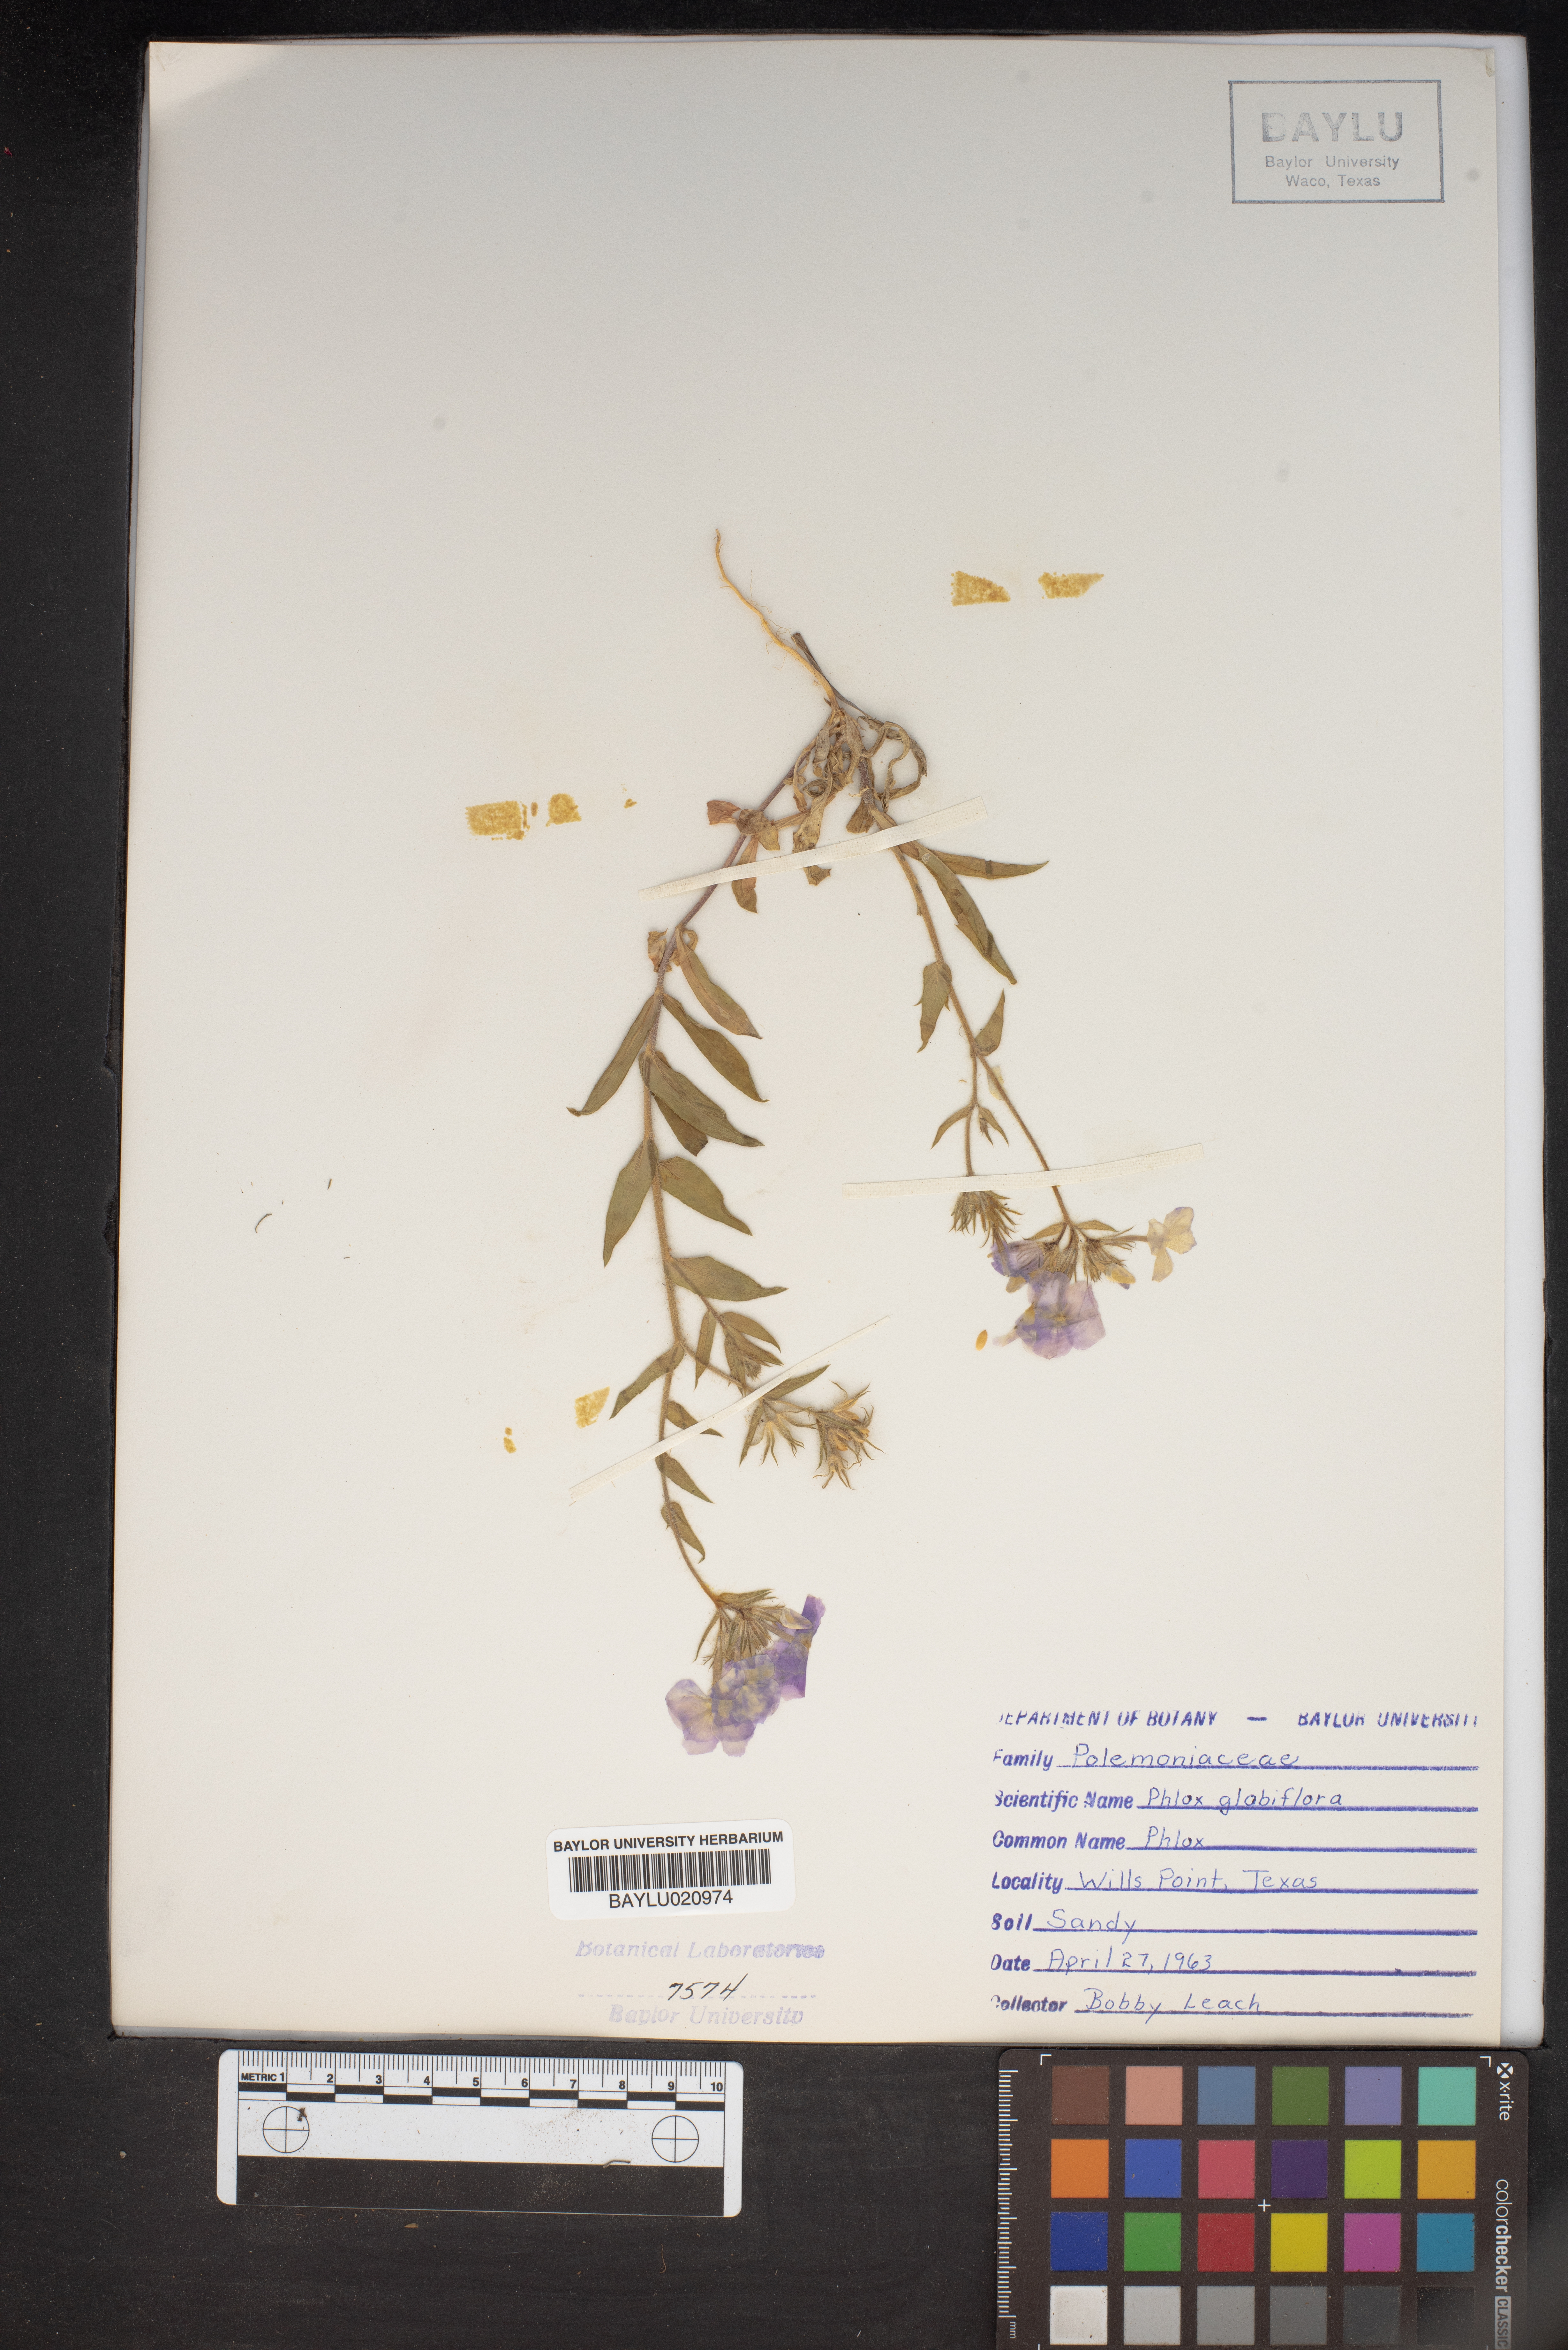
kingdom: Plantae
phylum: Tracheophyta
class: Magnoliopsida
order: Ericales
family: Polemoniaceae
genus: Phlox
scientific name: Phlox glabriflora
